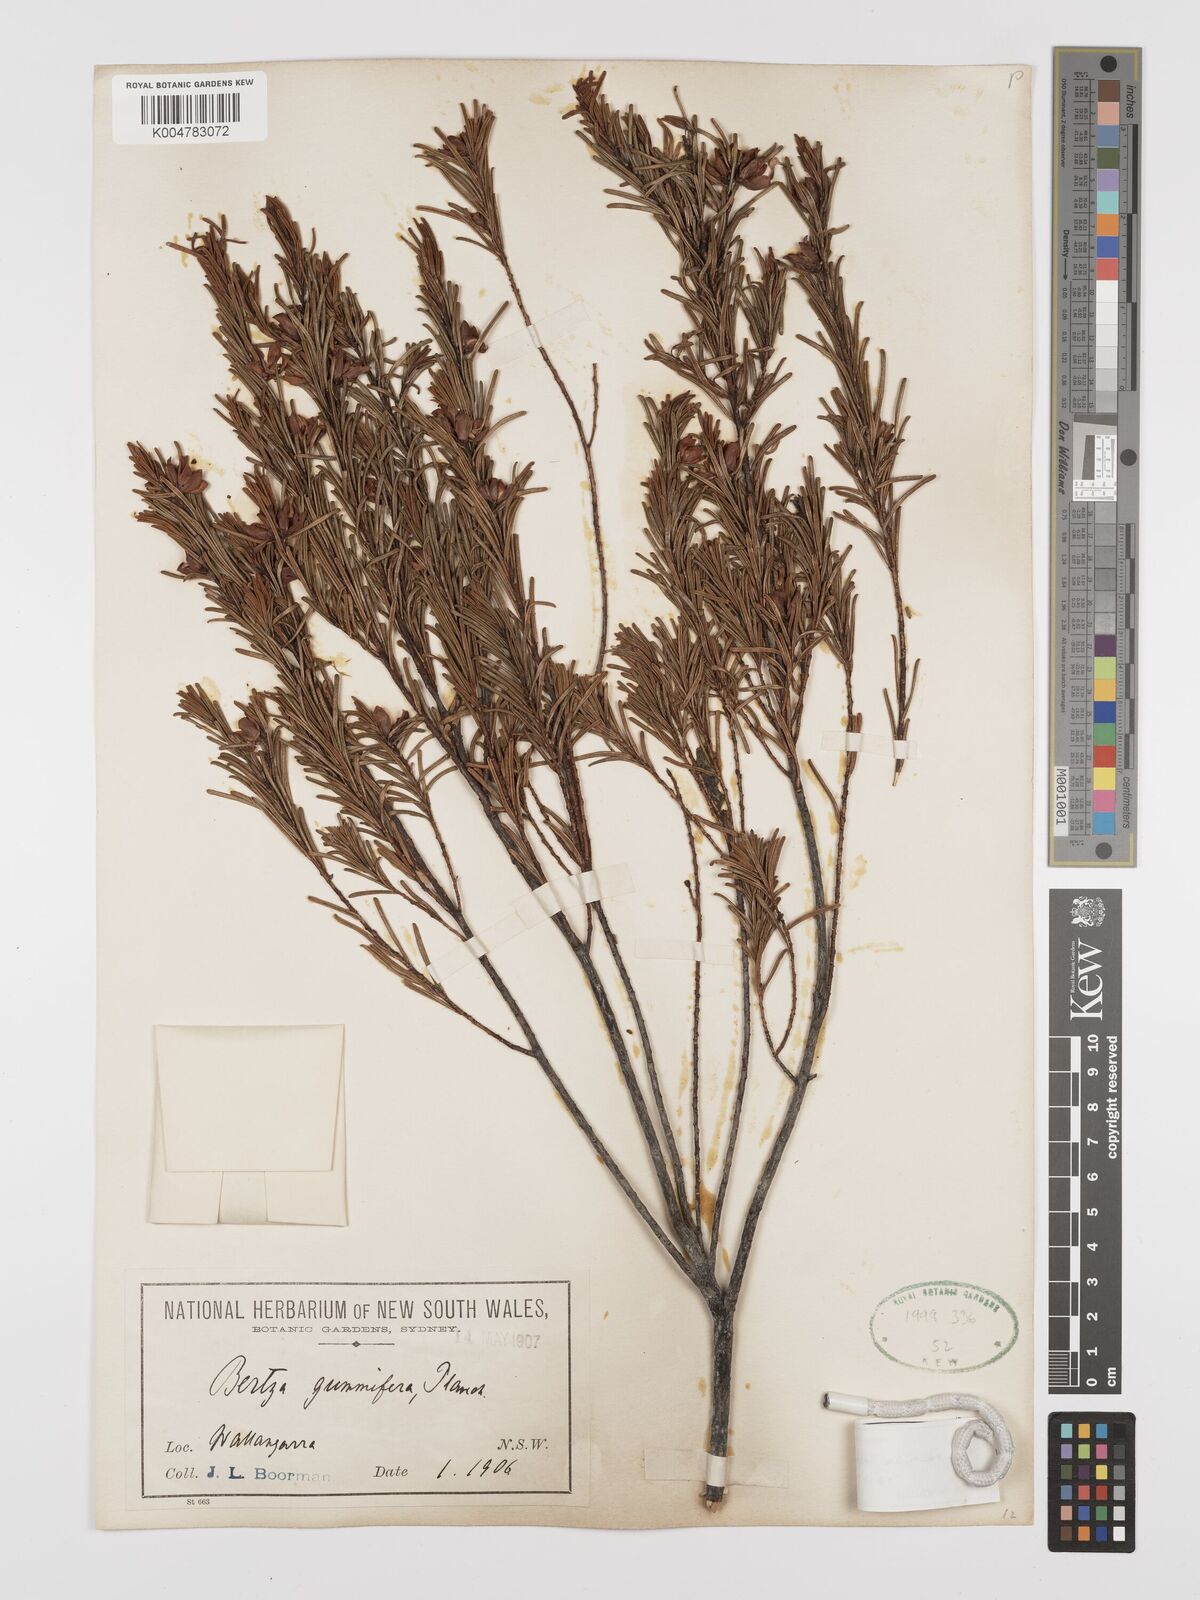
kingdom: Plantae
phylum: Tracheophyta
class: Magnoliopsida
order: Malpighiales
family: Euphorbiaceae
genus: Bertya
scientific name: Bertya recurvata
